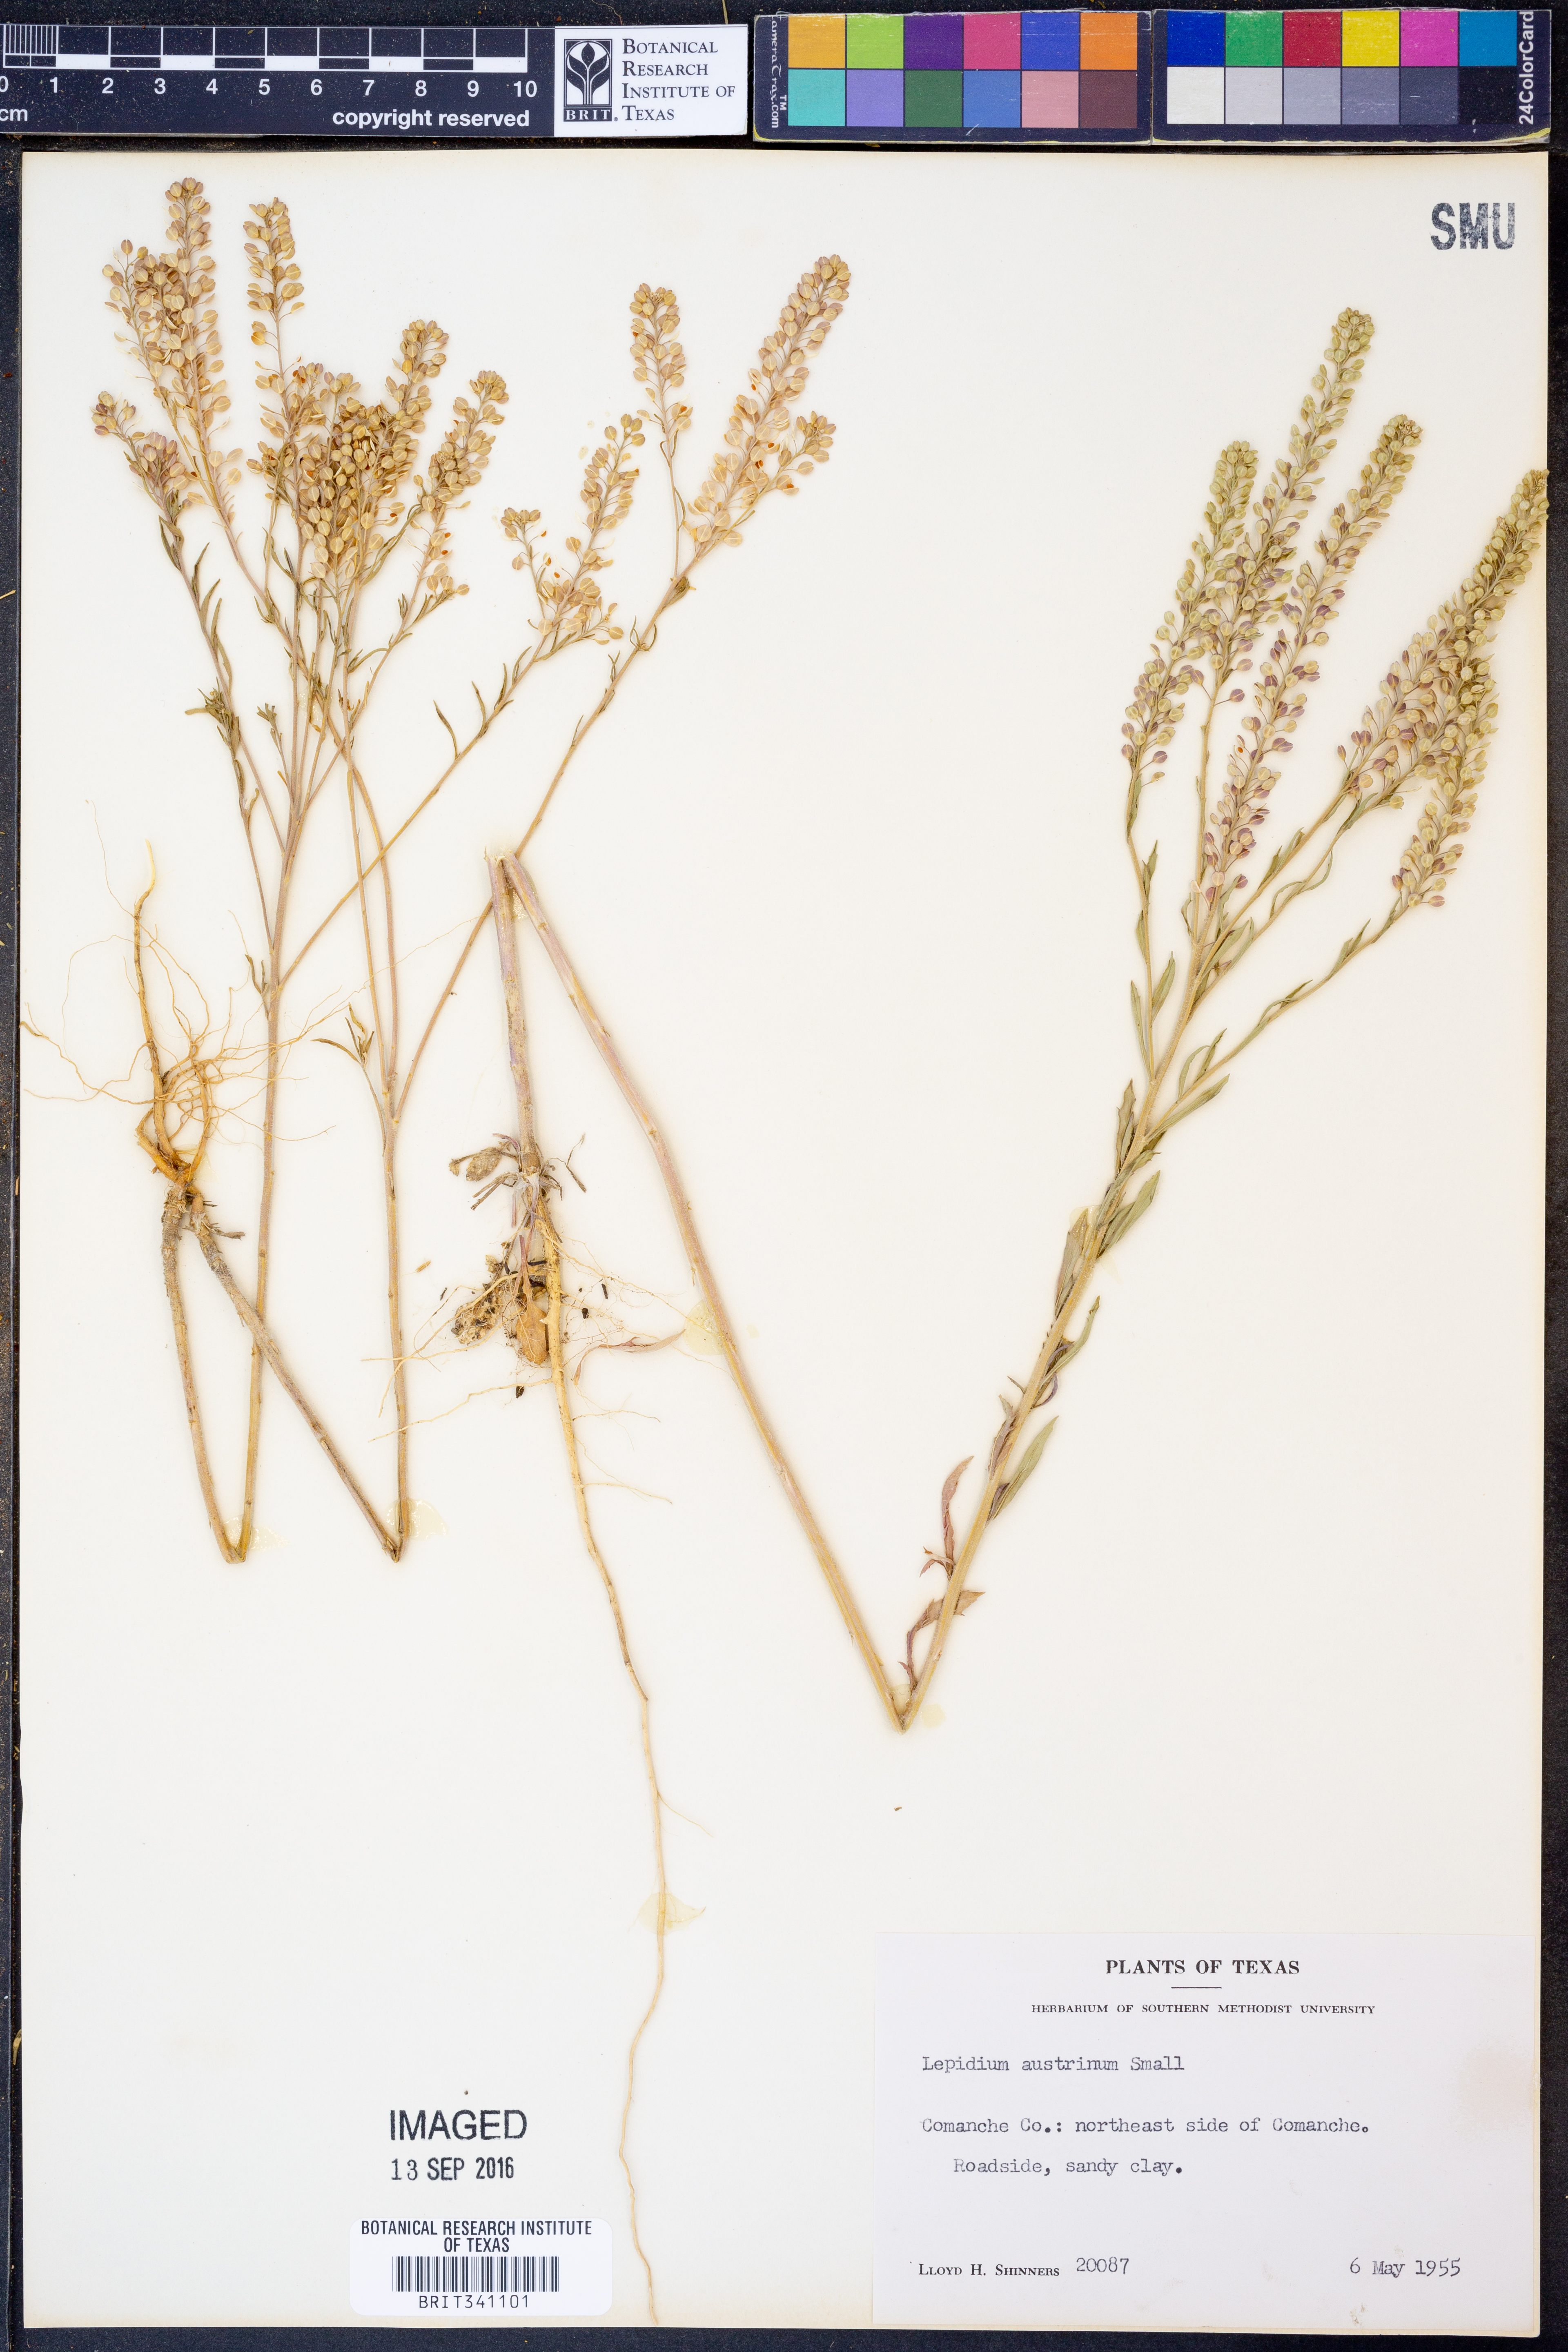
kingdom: Plantae
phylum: Tracheophyta
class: Magnoliopsida
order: Brassicales
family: Brassicaceae
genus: Lepidium
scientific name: Lepidium austrinum
